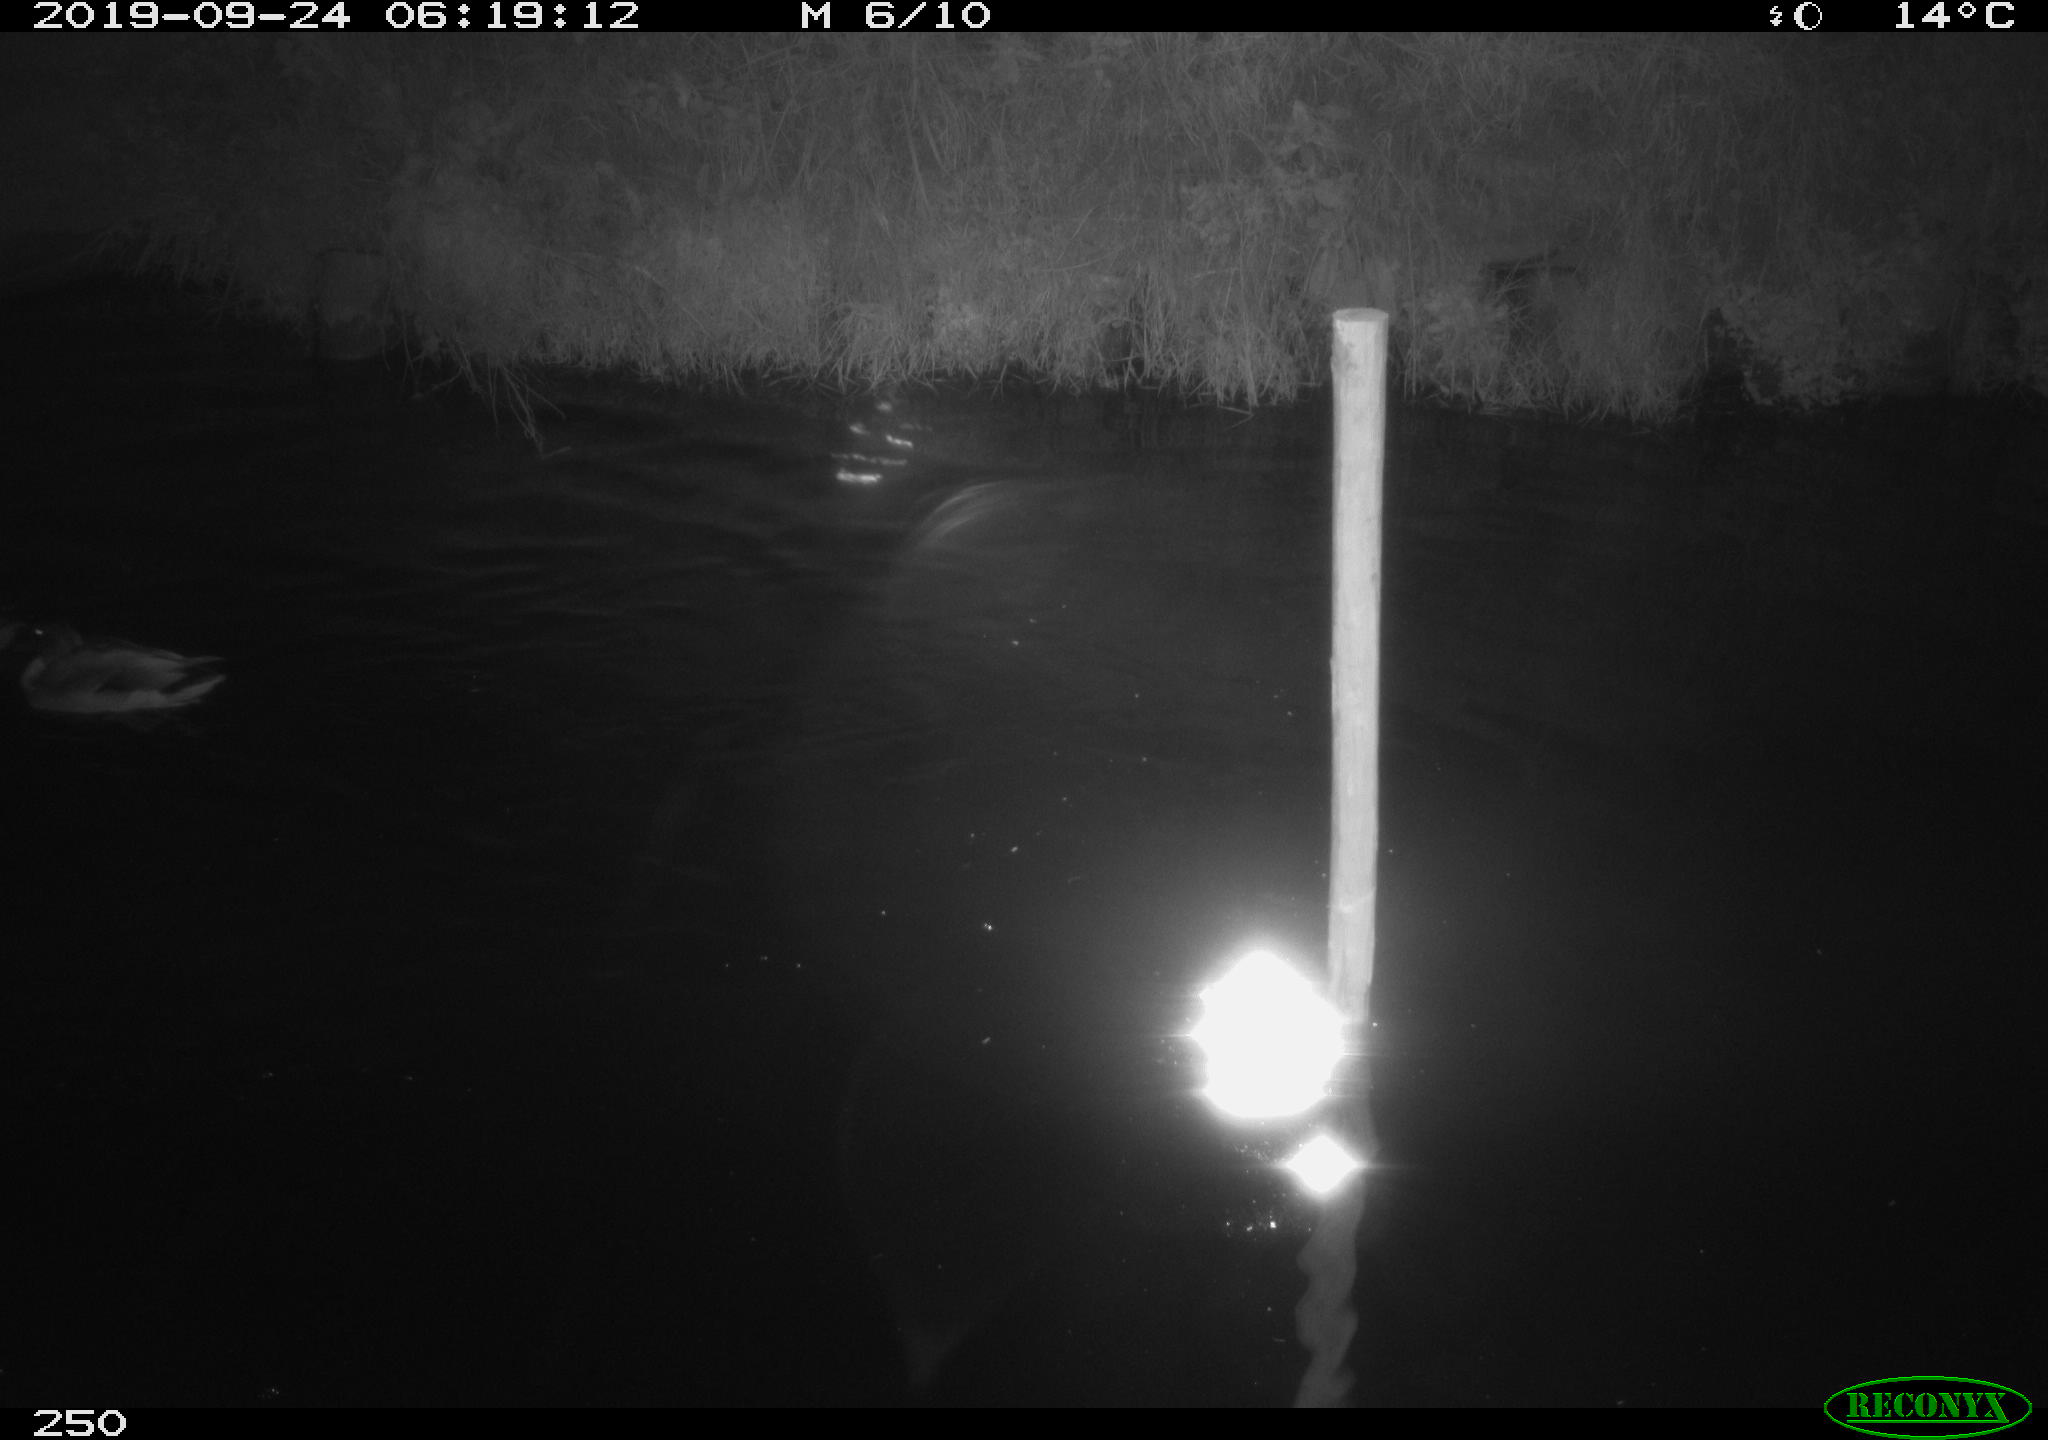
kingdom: Animalia
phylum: Chordata
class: Aves
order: Anseriformes
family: Anatidae
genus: Anas
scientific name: Anas platyrhynchos
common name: Mallard
